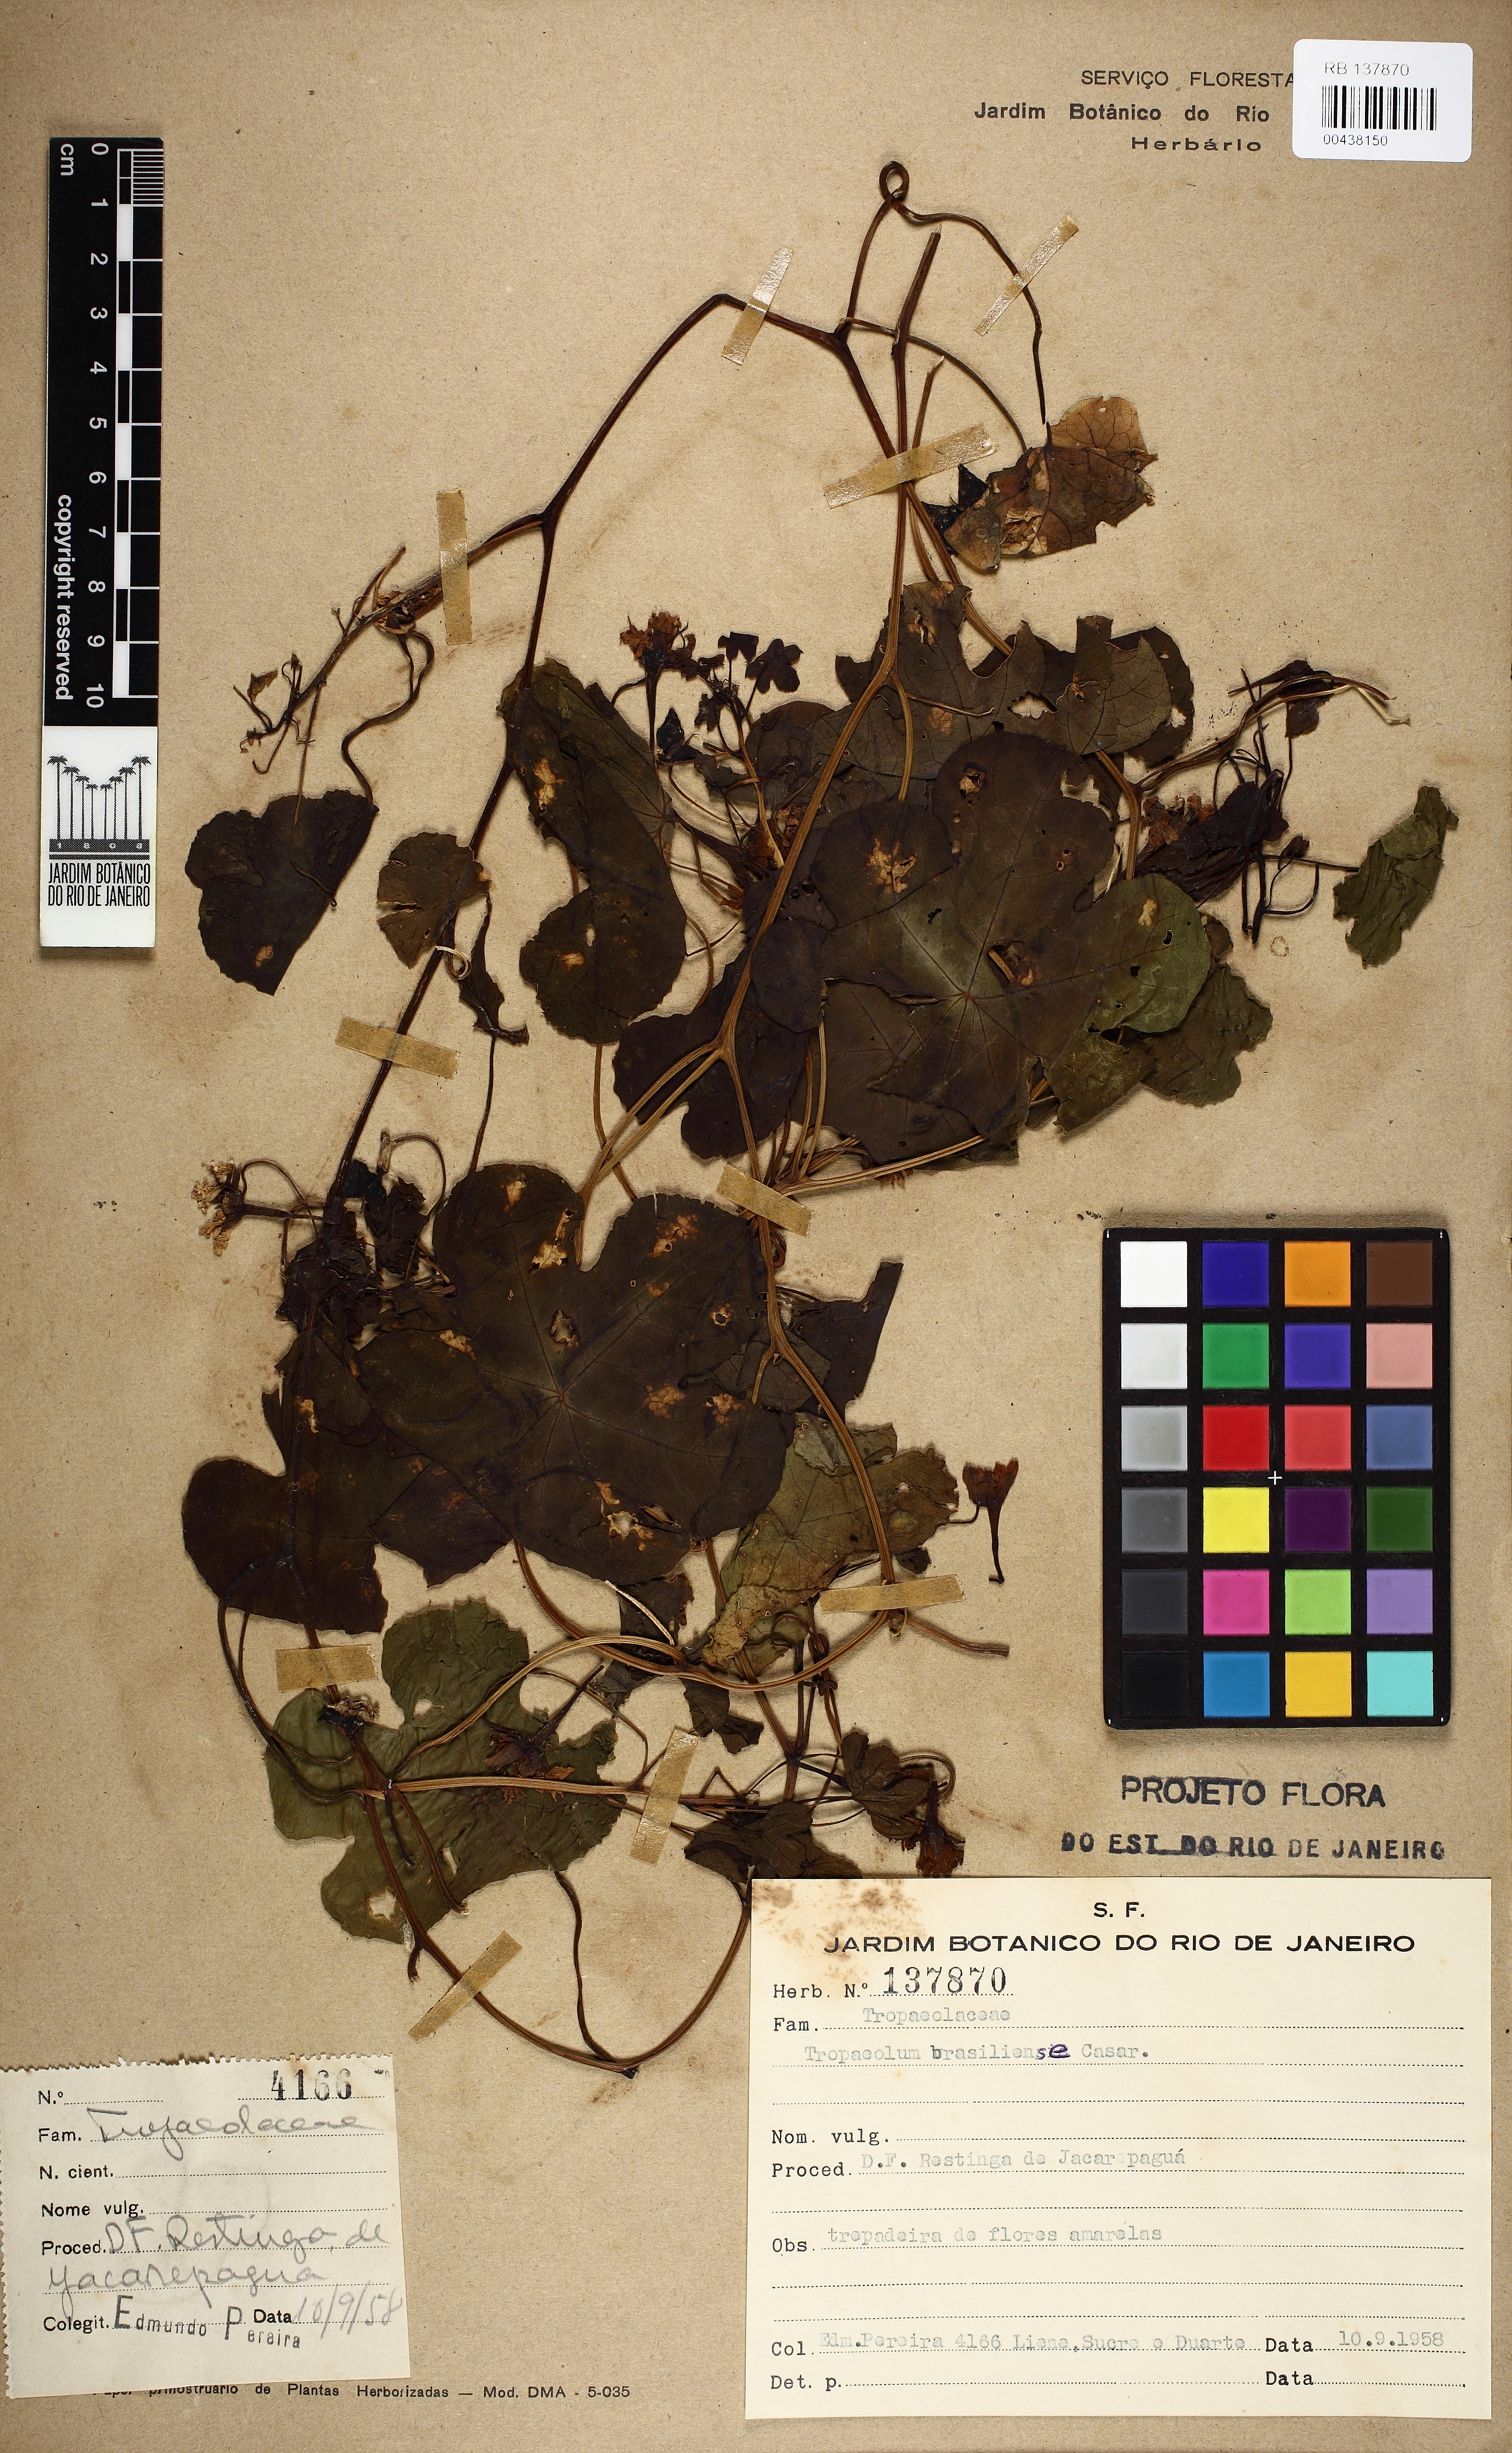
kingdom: Plantae
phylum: Tracheophyta
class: Magnoliopsida
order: Brassicales
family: Tropaeolaceae
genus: Tropaeolum
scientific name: Tropaeolum brasiliense
